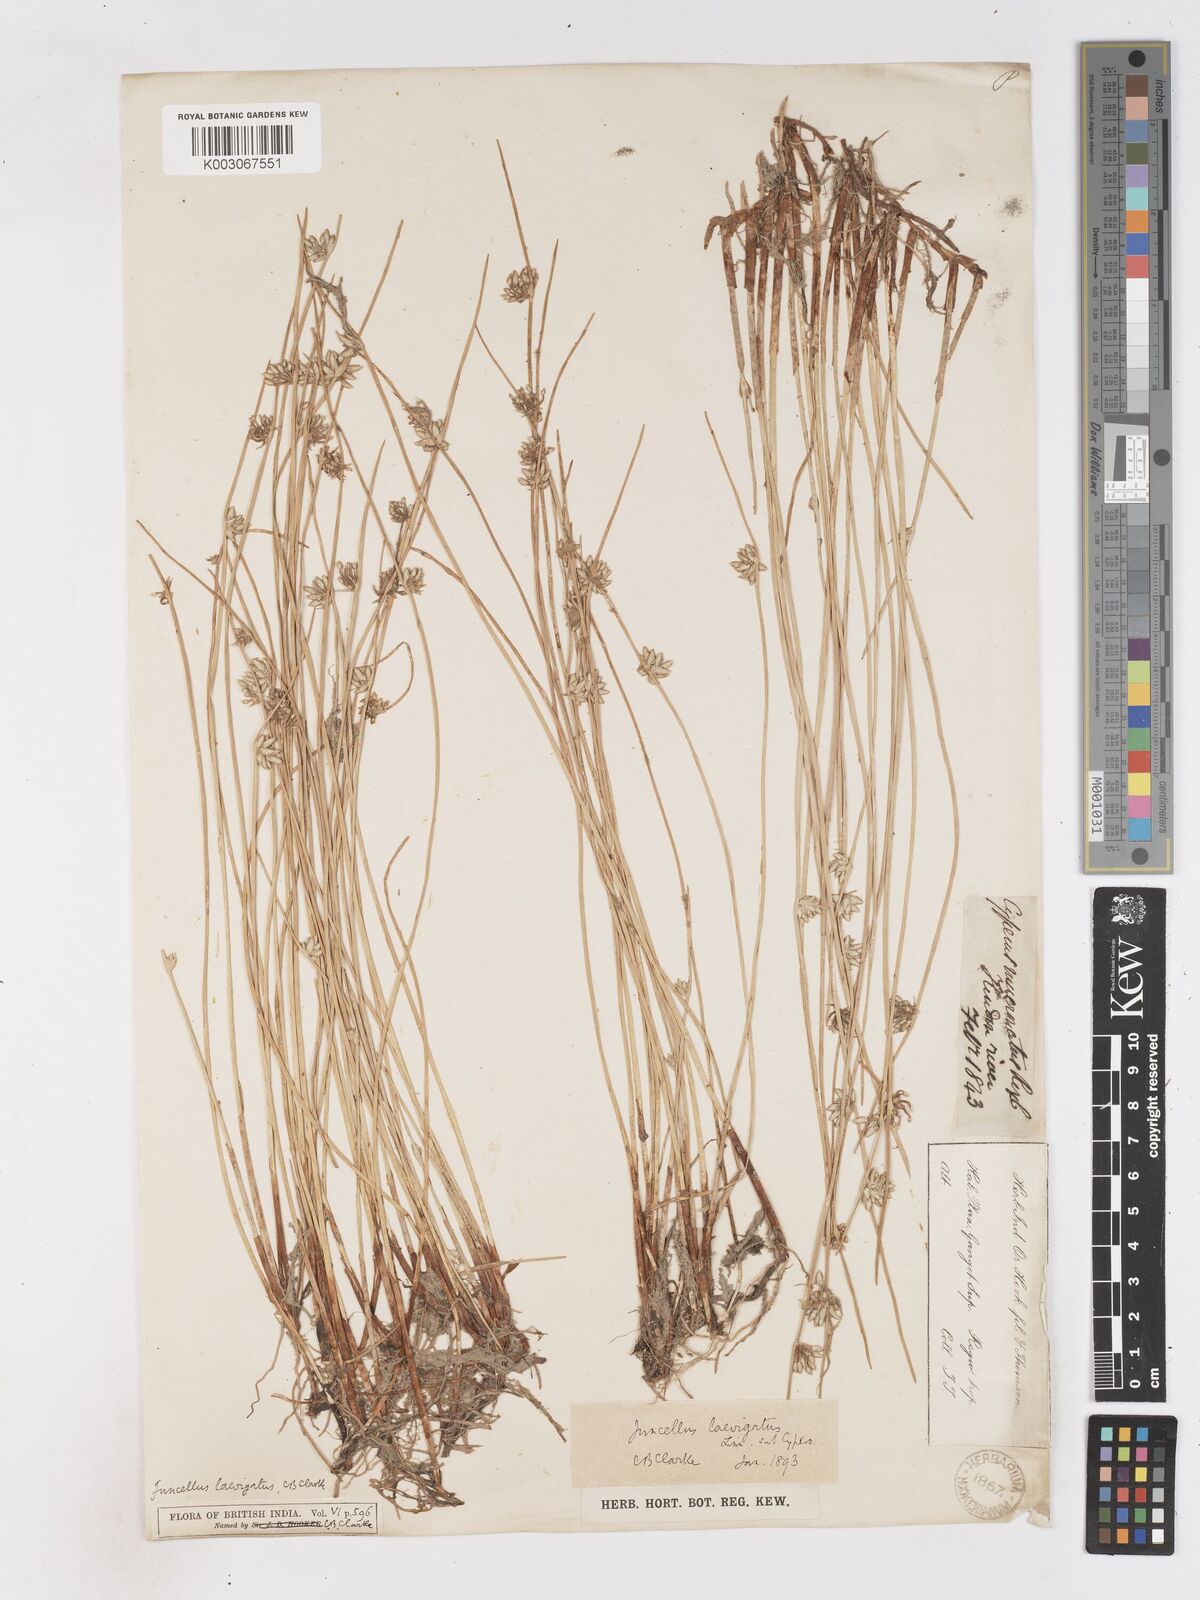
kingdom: Plantae
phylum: Tracheophyta
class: Liliopsida
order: Poales
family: Cyperaceae
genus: Cyperus
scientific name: Cyperus laevigatus
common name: Smooth flat sedge
